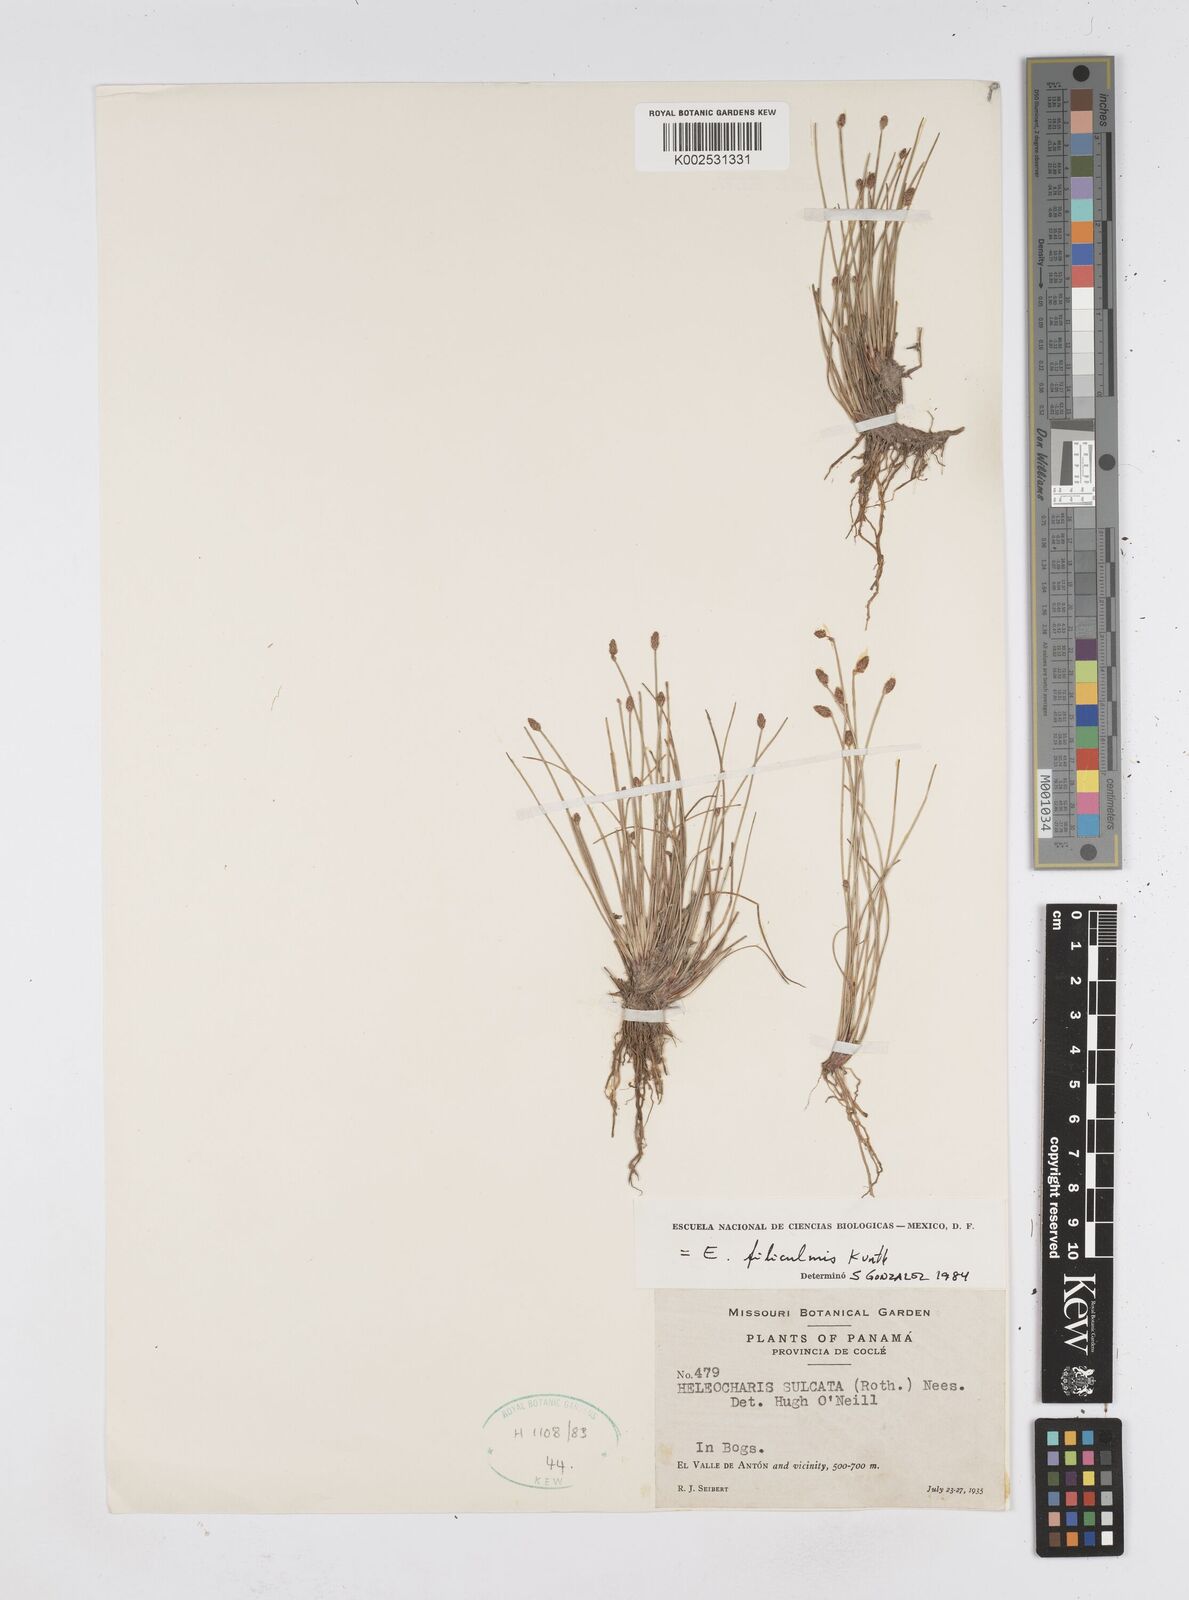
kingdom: Plantae
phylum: Tracheophyta
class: Liliopsida
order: Poales
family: Cyperaceae
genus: Eleocharis
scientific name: Eleocharis filiculmis
